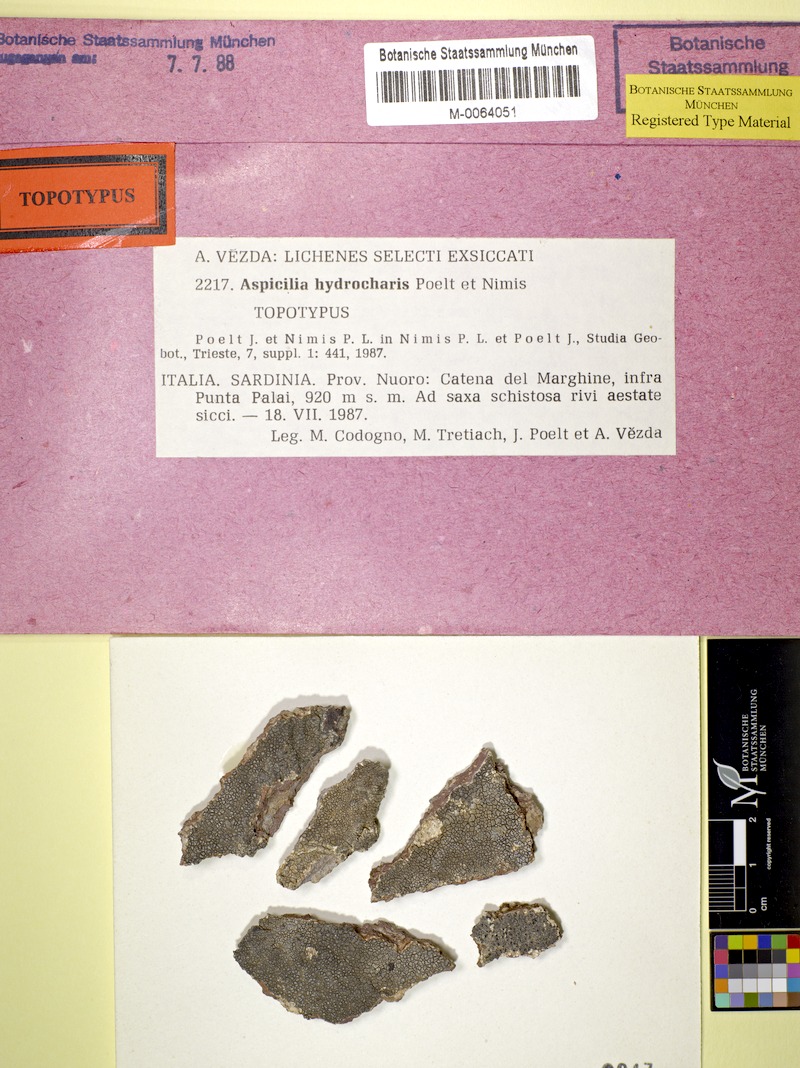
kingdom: Fungi
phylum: Ascomycota
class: Lecanoromycetes
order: Pertusariales
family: Megasporaceae
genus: Lobothallia
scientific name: Lobothallia hydrocharis
